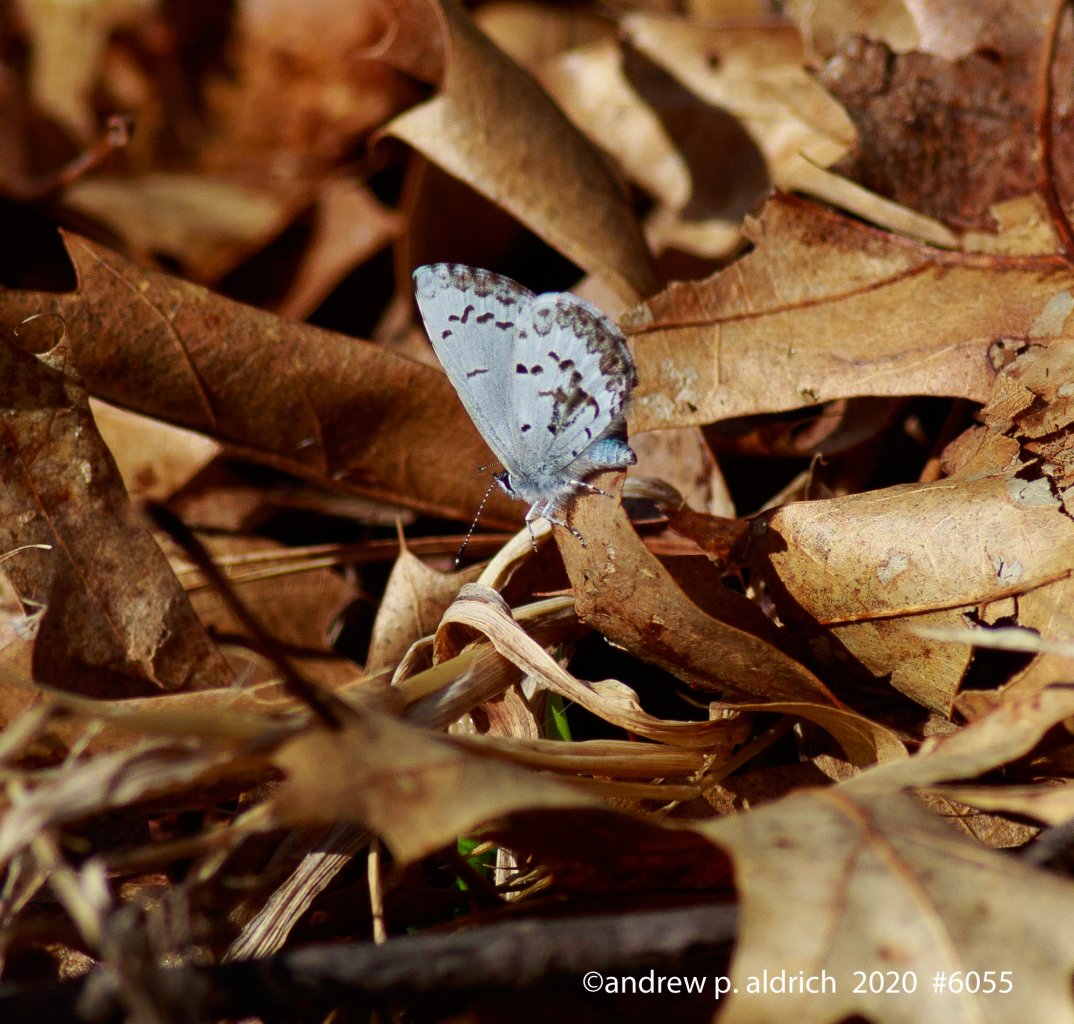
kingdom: Animalia
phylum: Arthropoda
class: Insecta
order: Lepidoptera
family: Lycaenidae
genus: Celastrina
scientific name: Celastrina
